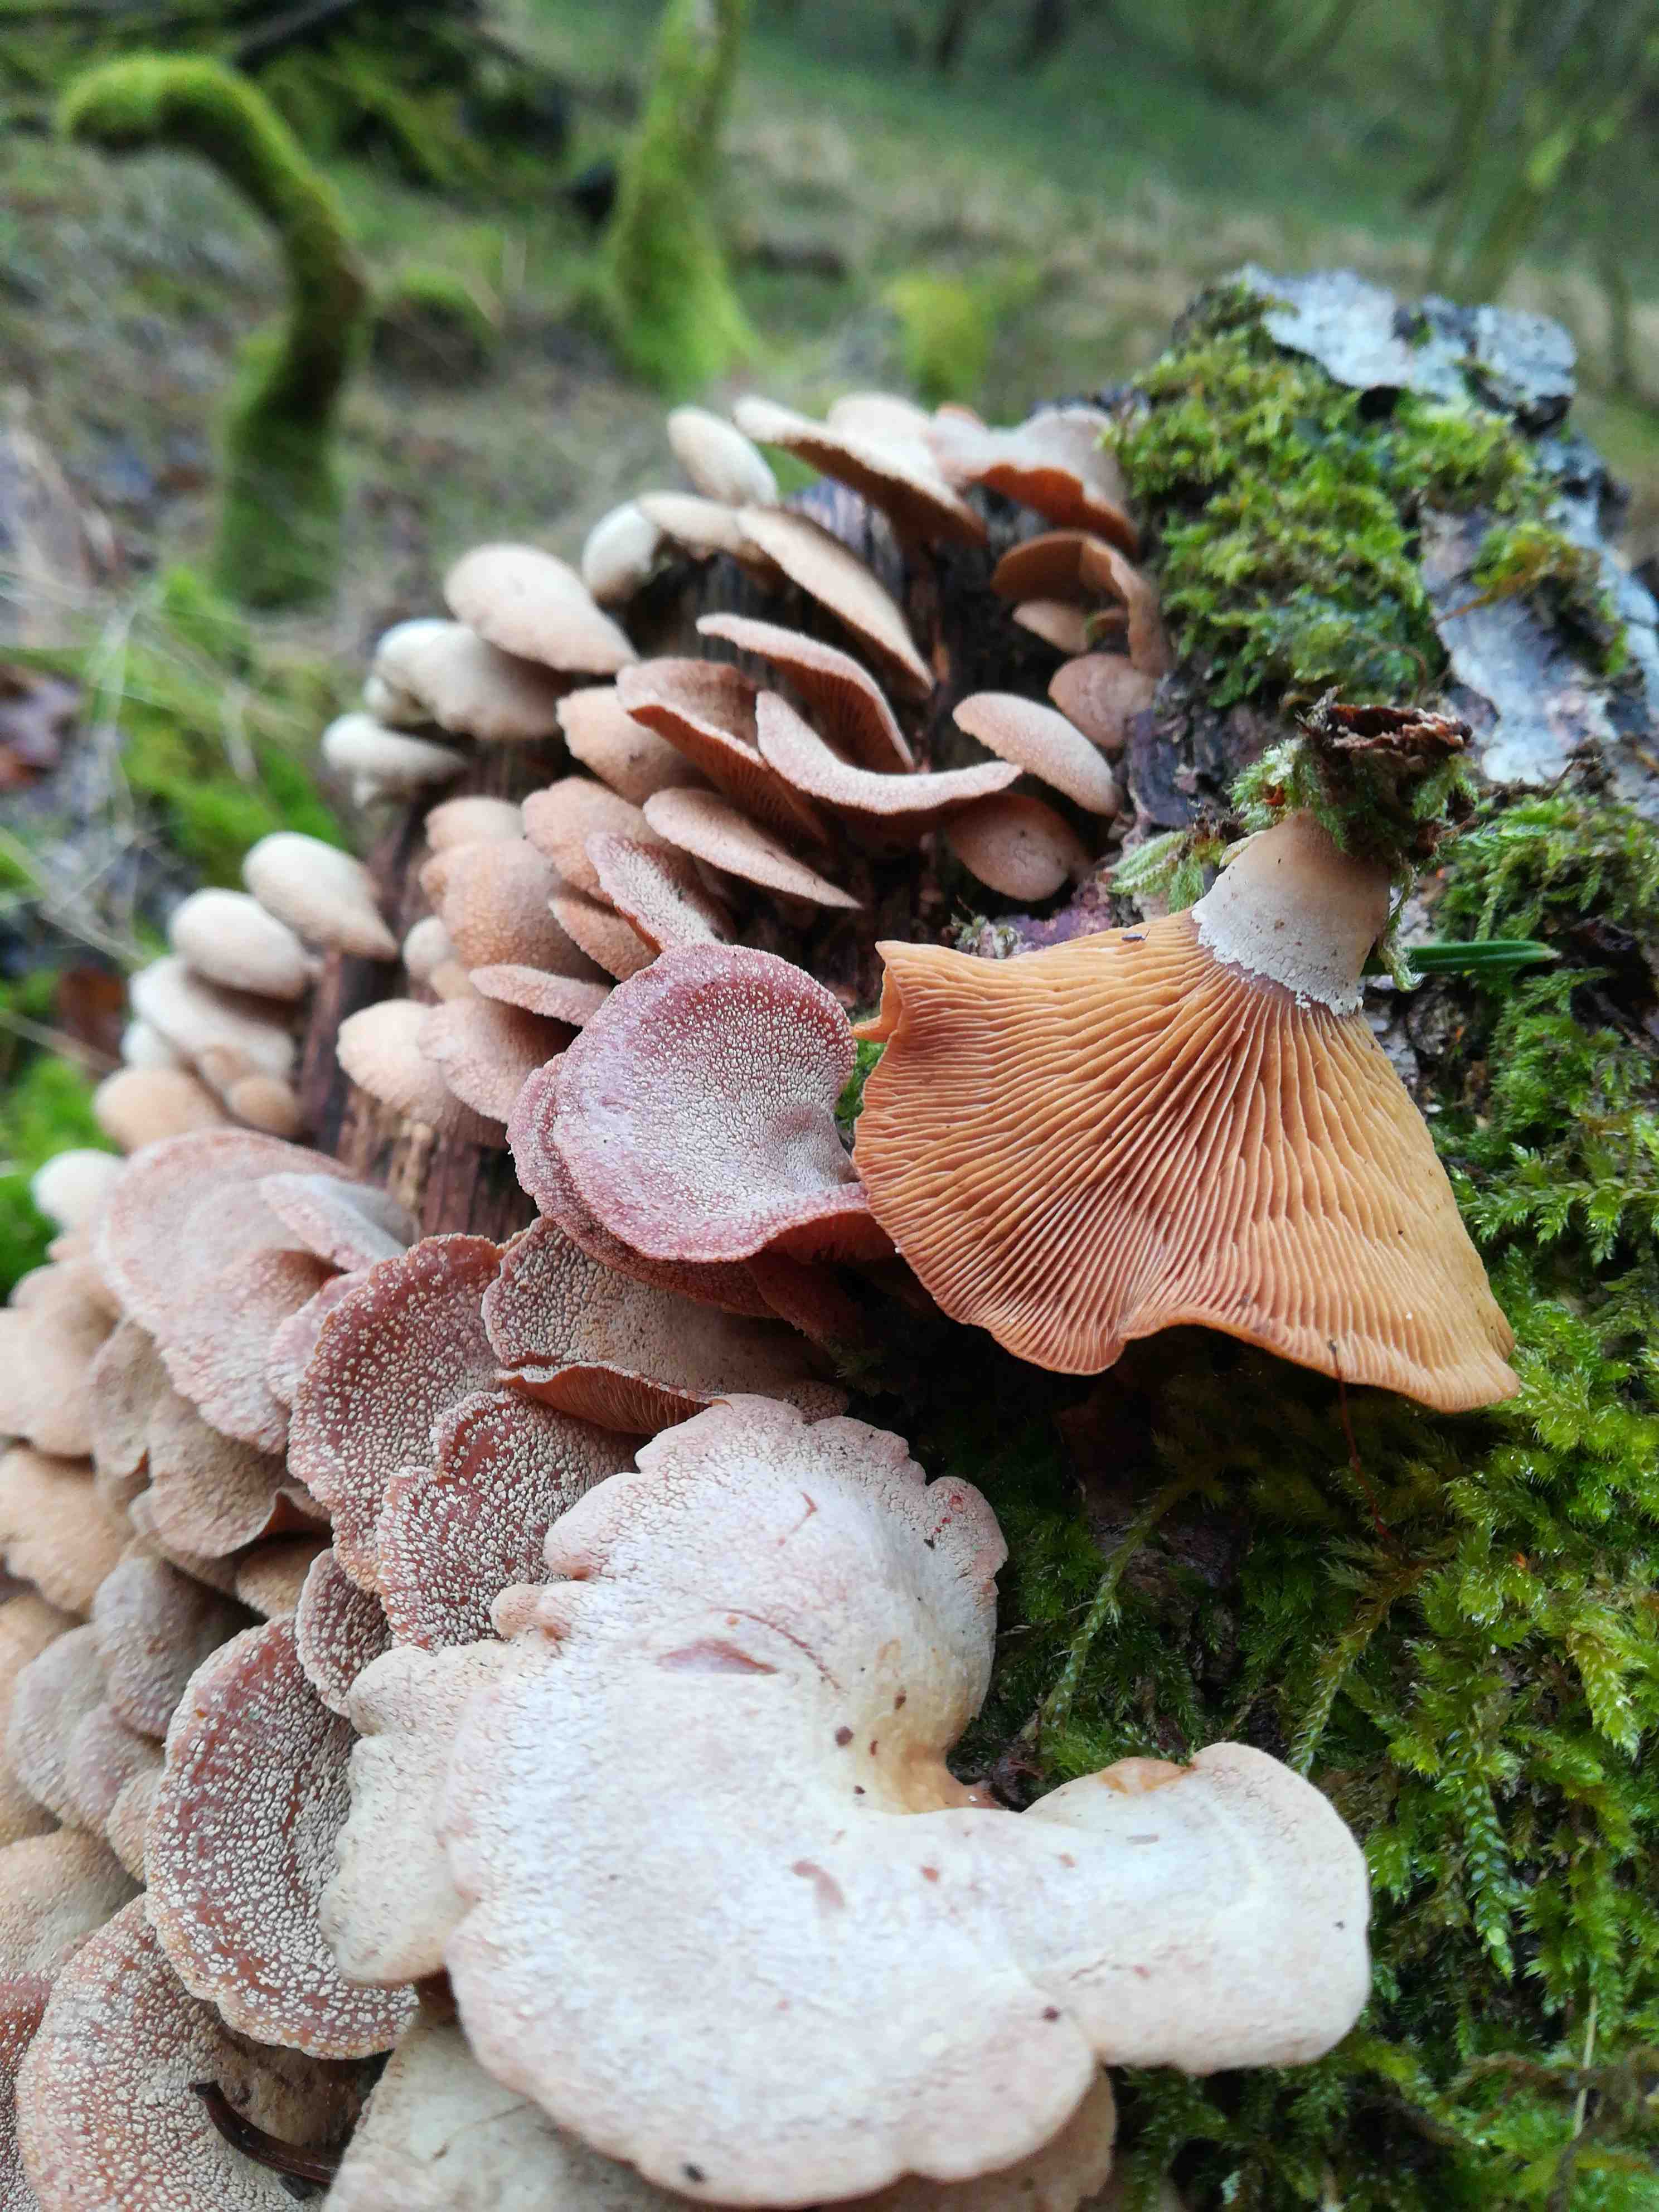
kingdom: Fungi
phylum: Basidiomycota
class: Agaricomycetes
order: Agaricales
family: Mycenaceae
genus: Panellus
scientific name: Panellus stipticus
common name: kliddet epaulethat
